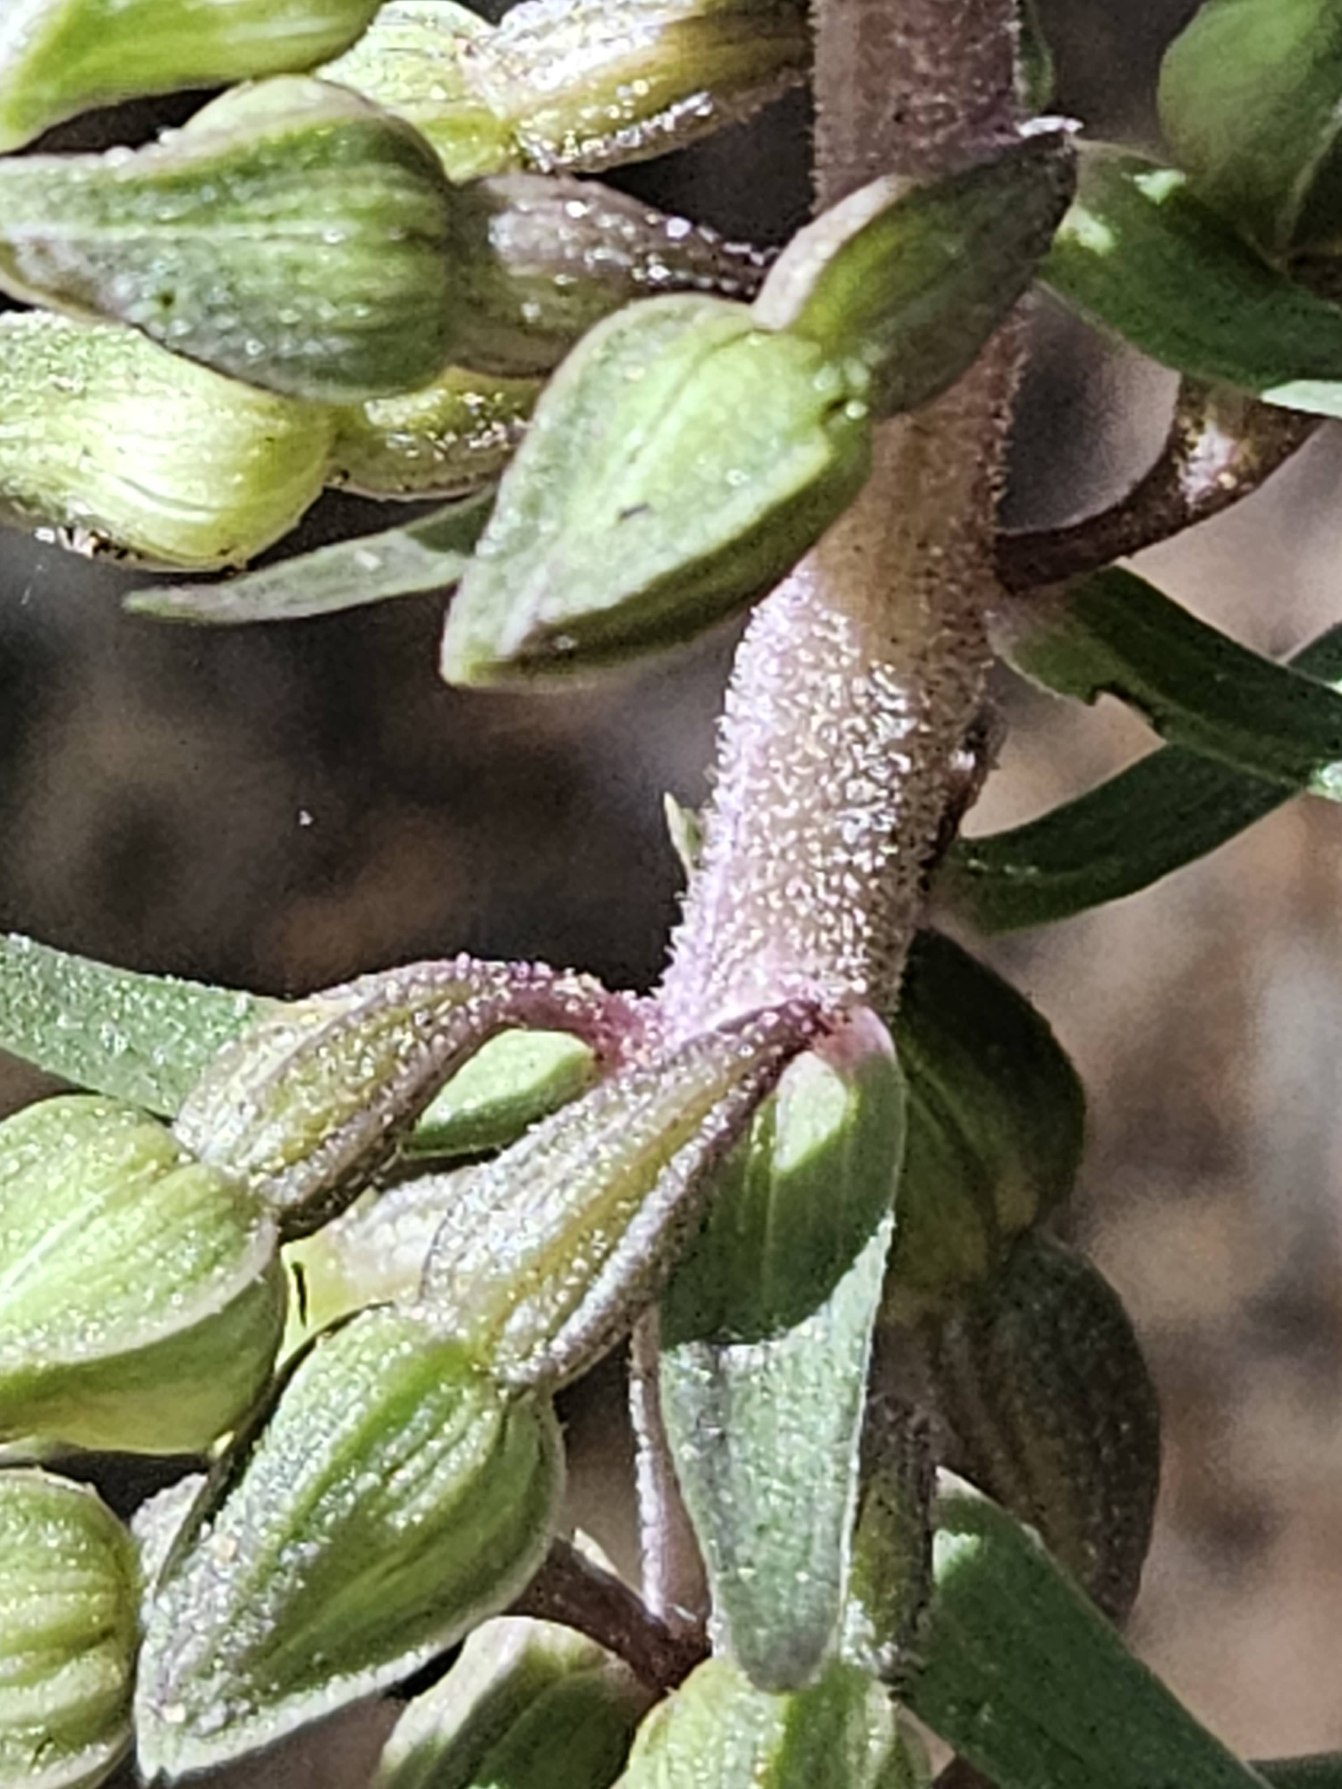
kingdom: Plantae
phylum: Tracheophyta
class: Liliopsida
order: Asparagales
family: Orchidaceae
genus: Epipactis
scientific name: Epipactis purpurata
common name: Tætblomstret hullæbe
